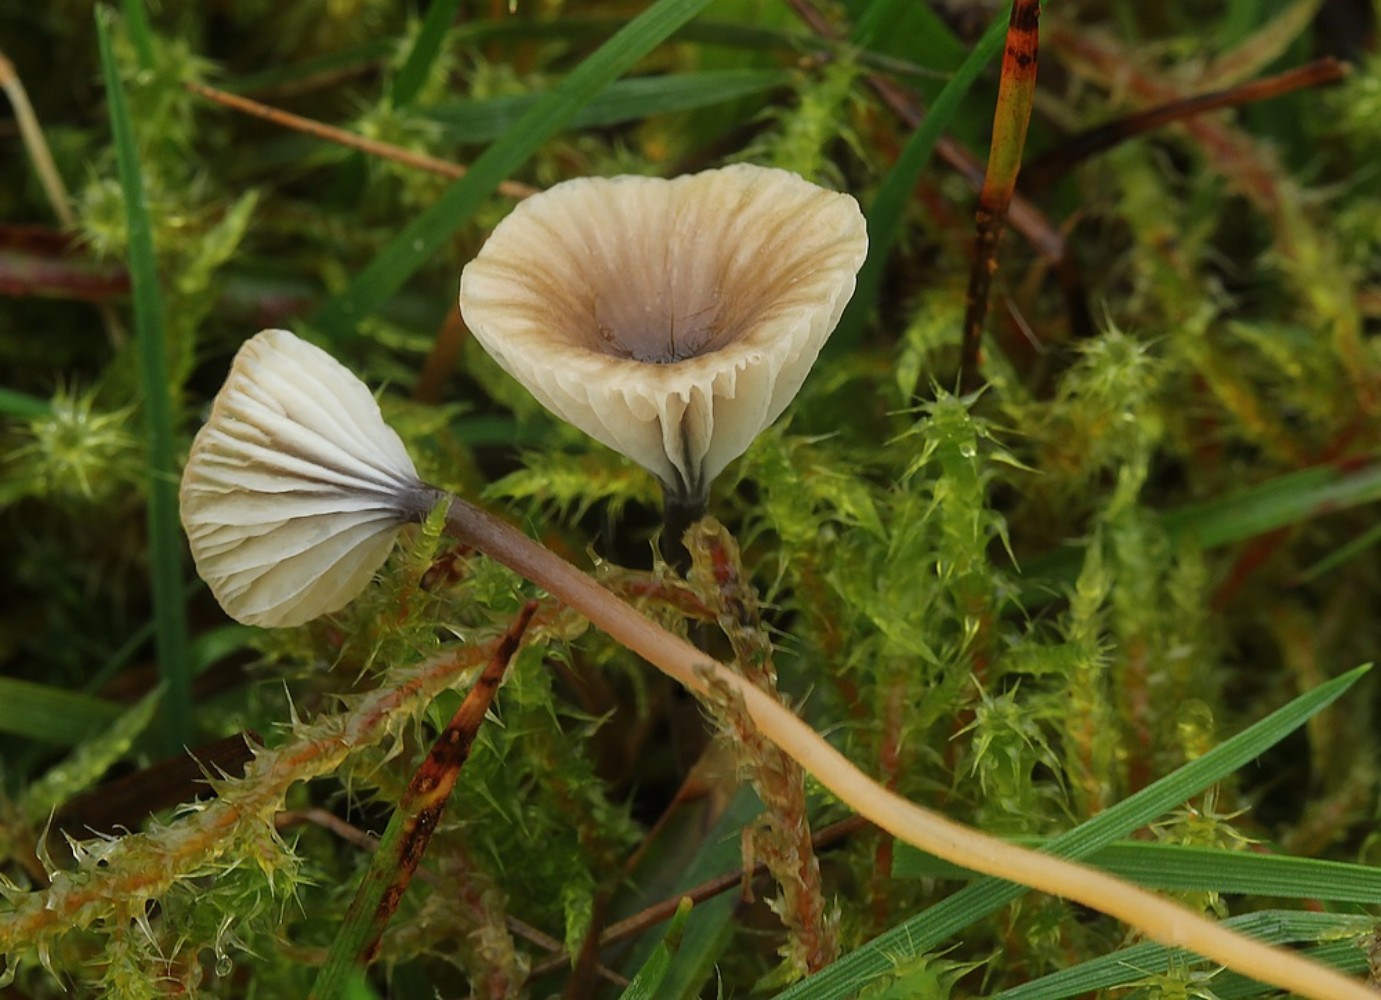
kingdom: Fungi
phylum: Basidiomycota
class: Agaricomycetes
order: Hymenochaetales
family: Rickenellaceae
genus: Rickenella
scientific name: Rickenella swartzii
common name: finstokket mosnavlehat
